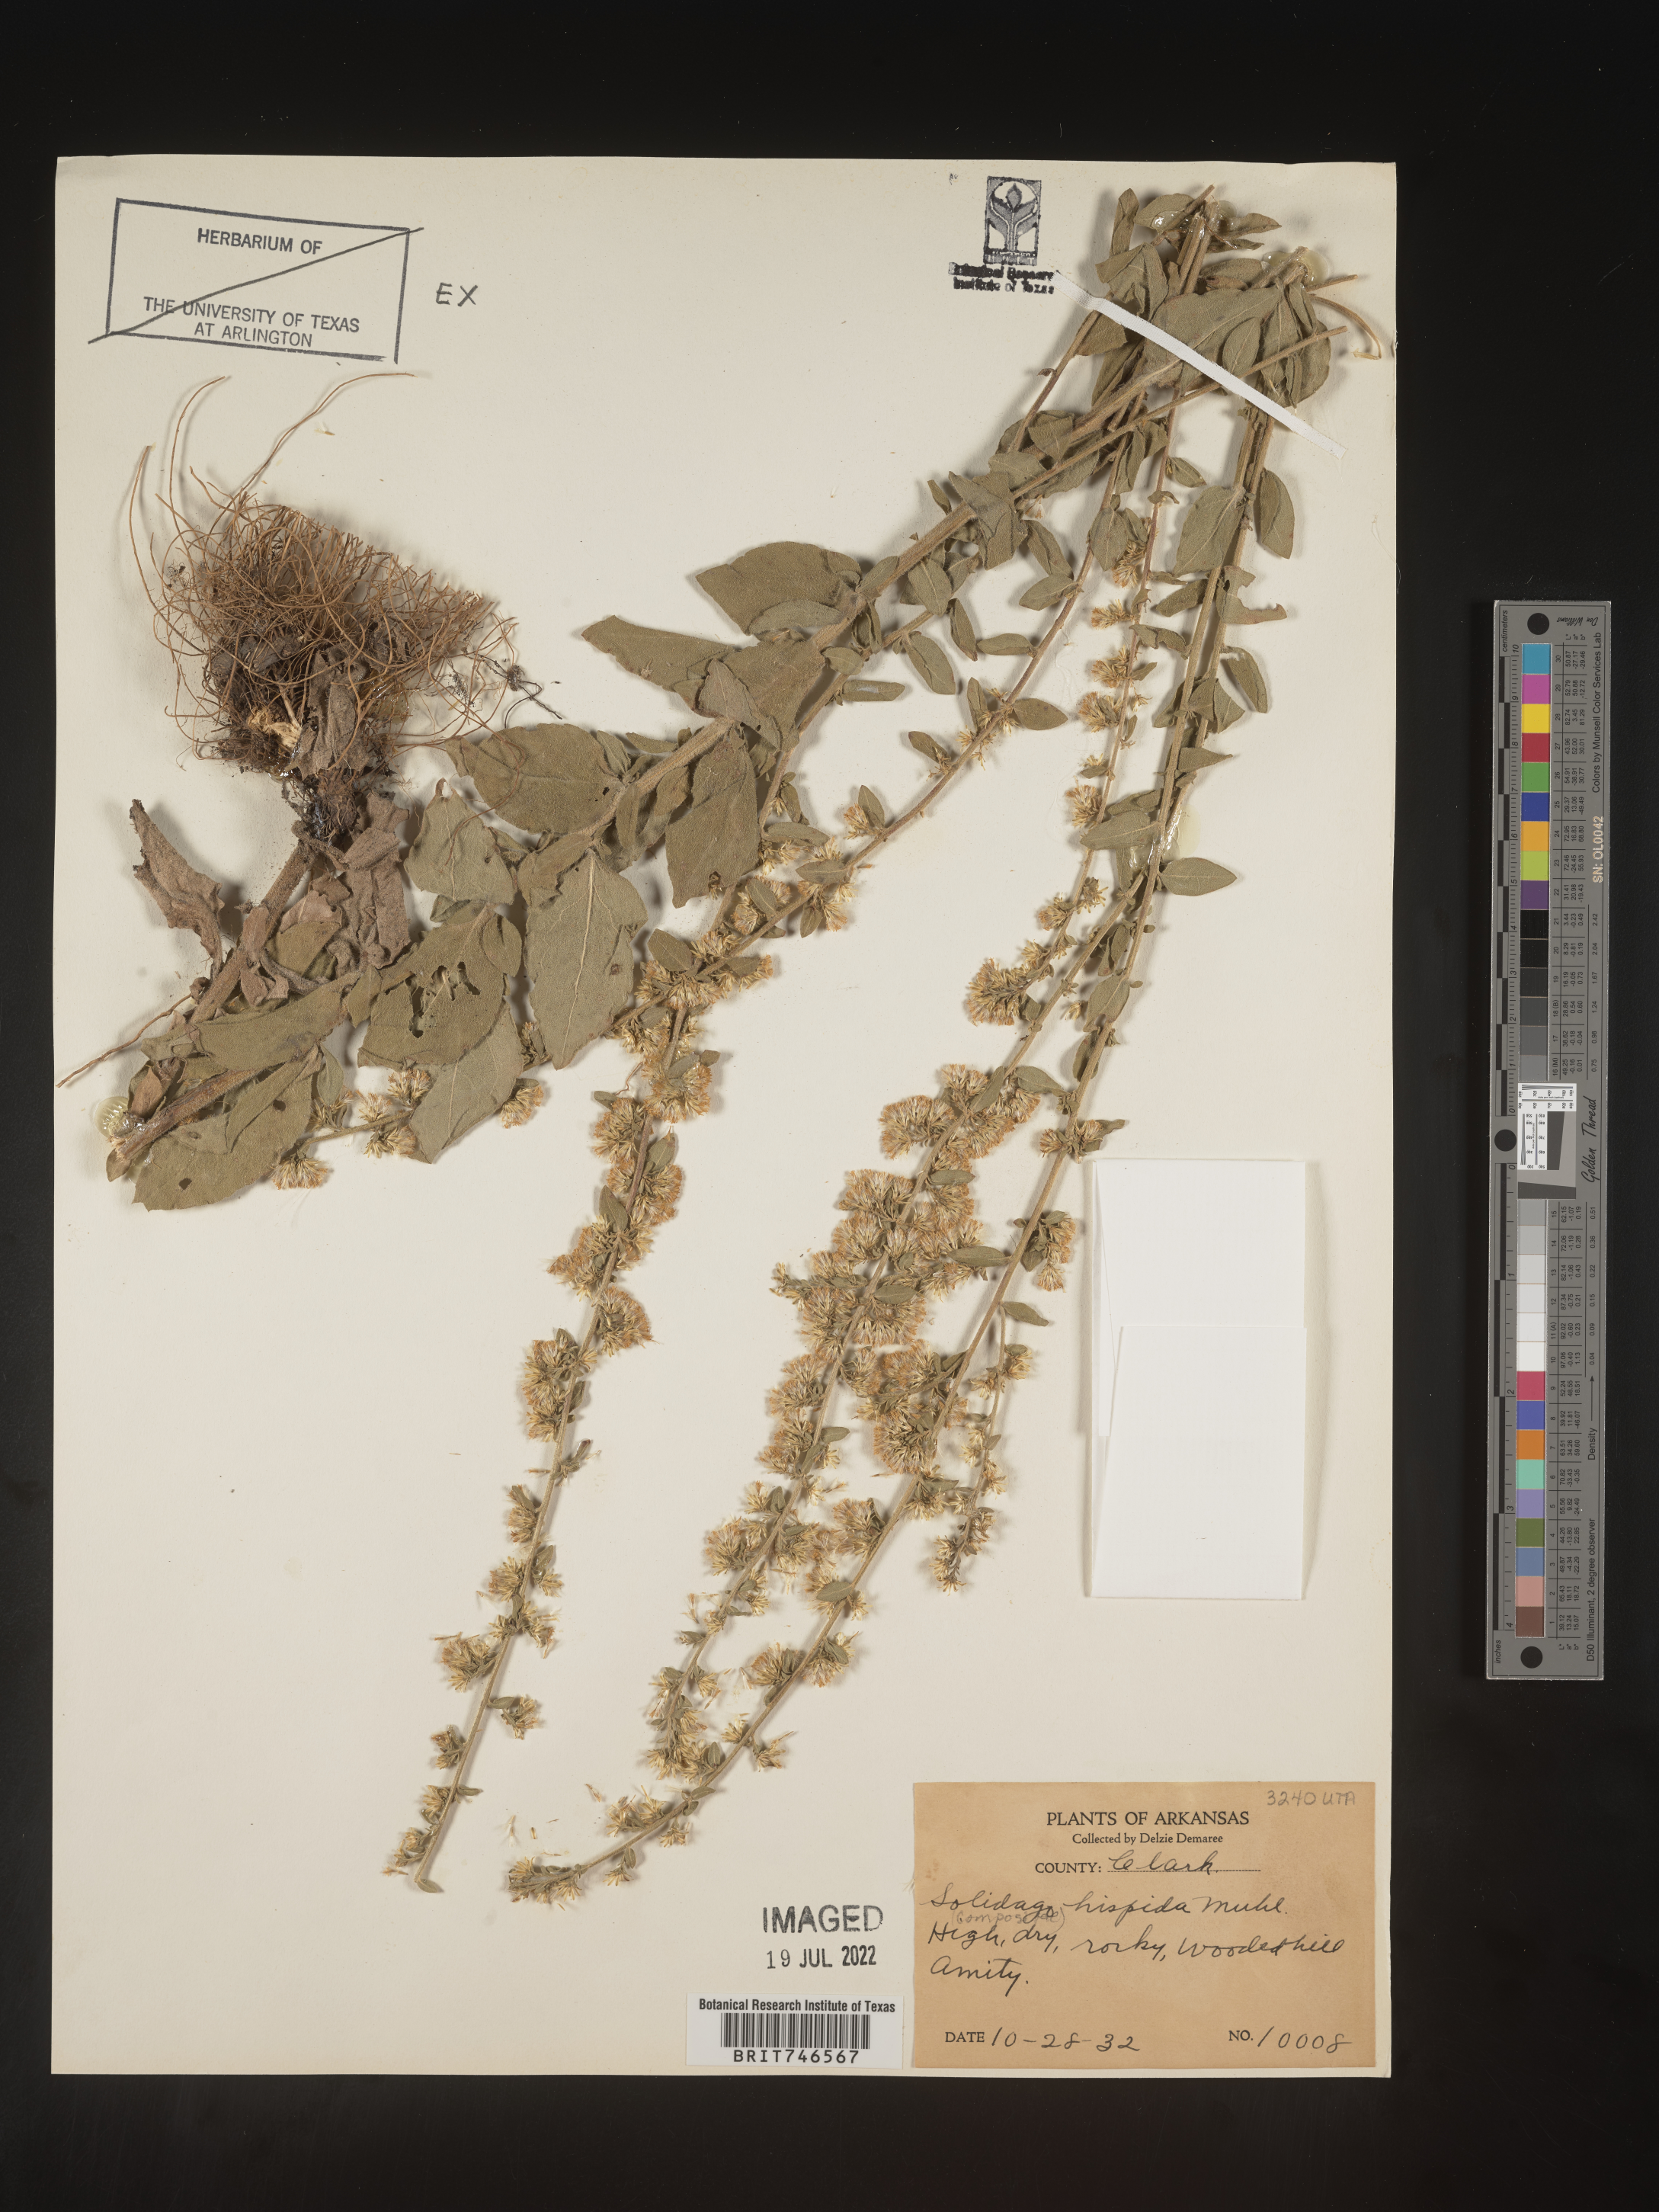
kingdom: Plantae
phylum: Tracheophyta
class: Magnoliopsida
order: Asterales
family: Asteraceae
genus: Solidago
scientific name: Solidago hispida
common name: Hairy goldenrod
